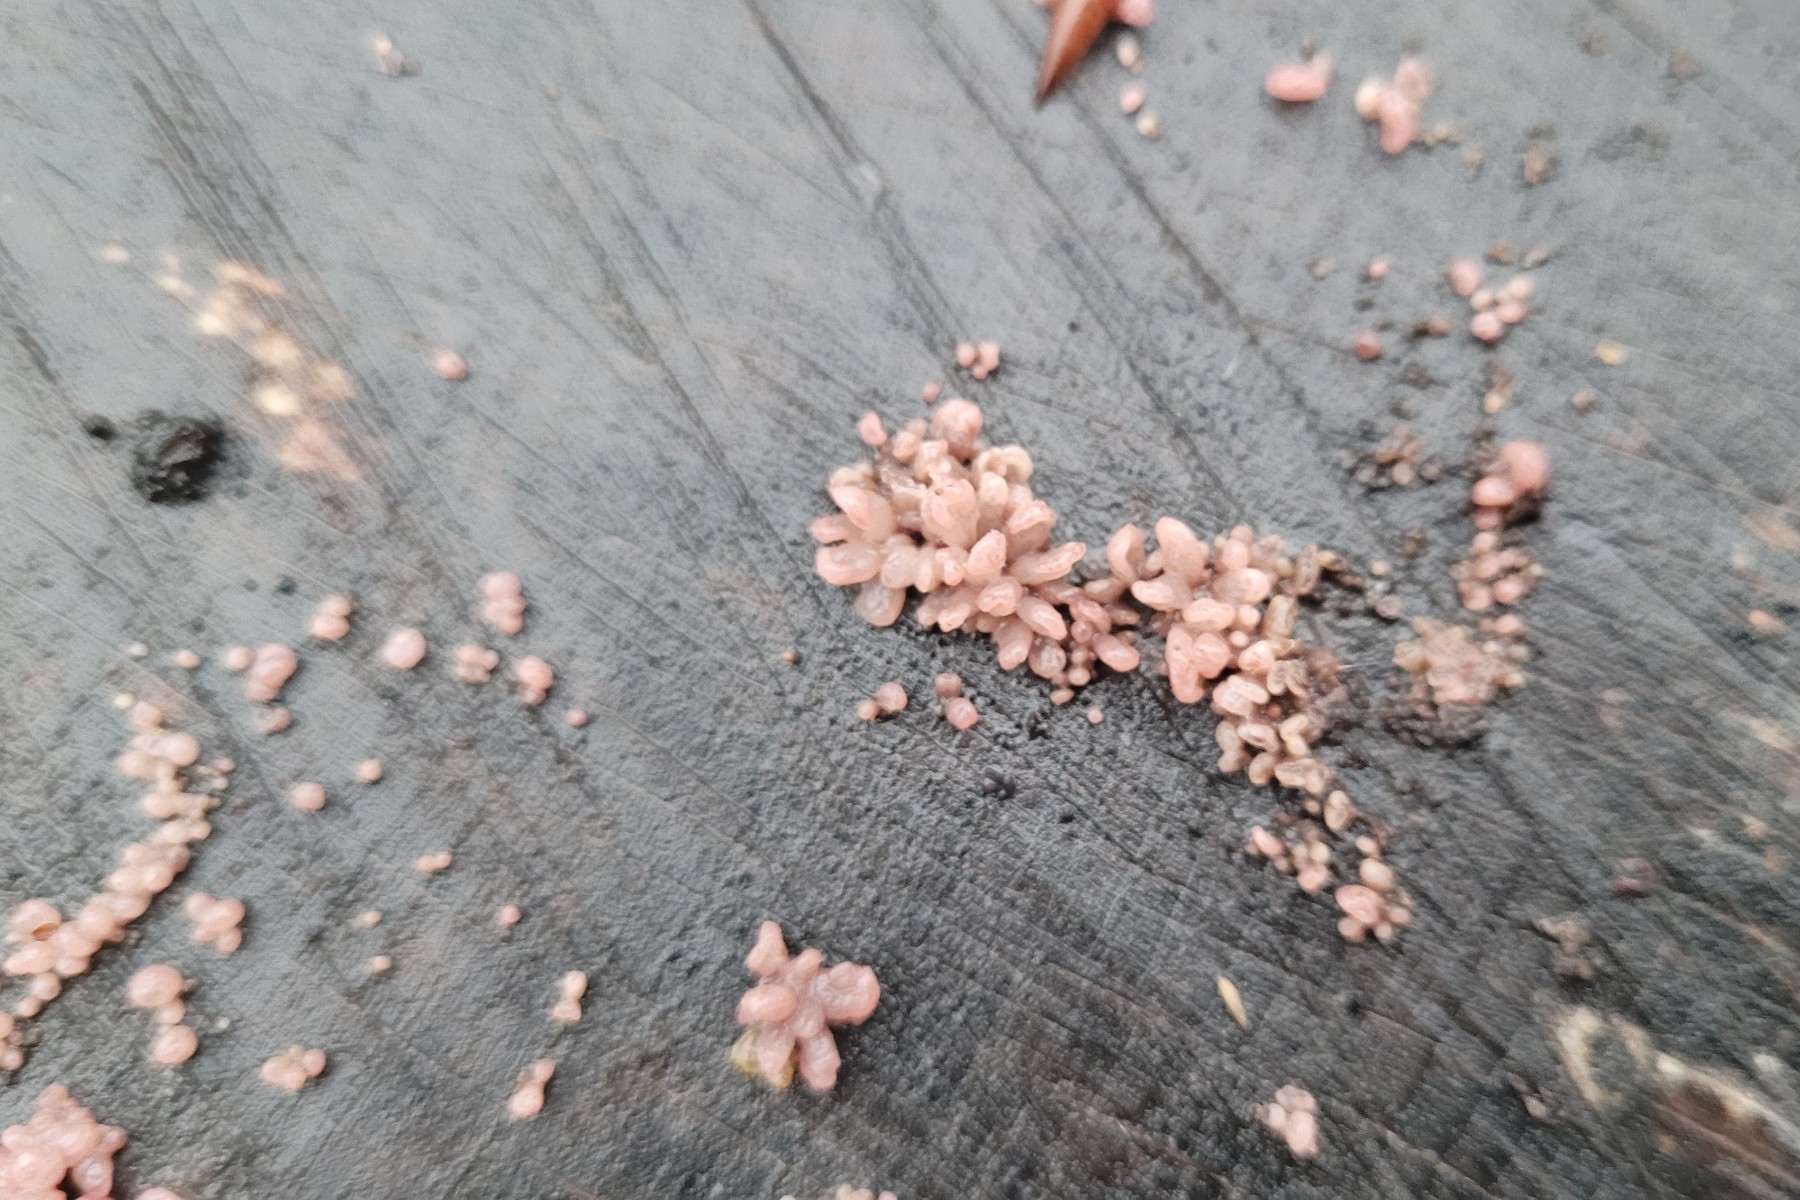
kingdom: Fungi
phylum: Ascomycota
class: Leotiomycetes
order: Helotiales
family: Gelatinodiscaceae
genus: Ascocoryne
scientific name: Ascocoryne sarcoides
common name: rødlilla sejskive
